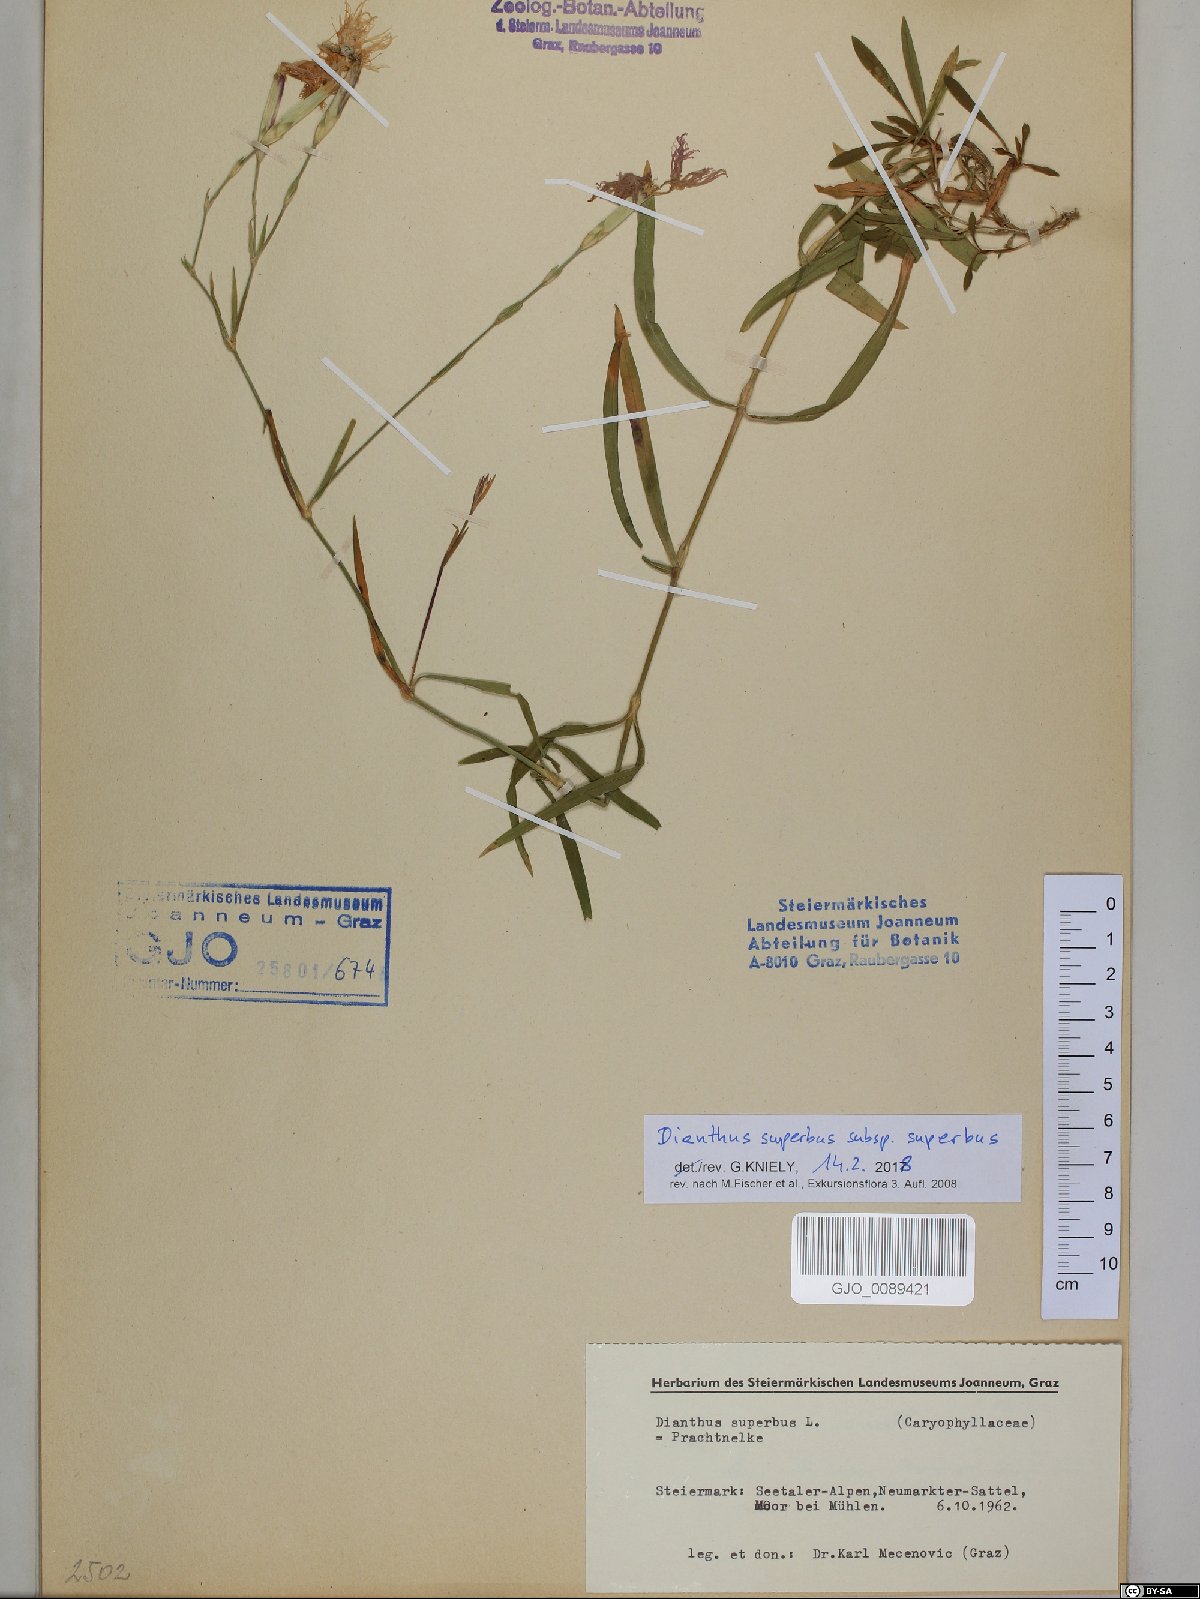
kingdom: Plantae
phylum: Tracheophyta
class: Magnoliopsida
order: Caryophyllales
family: Caryophyllaceae
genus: Dianthus
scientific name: Dianthus superbus
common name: Fringed pink
